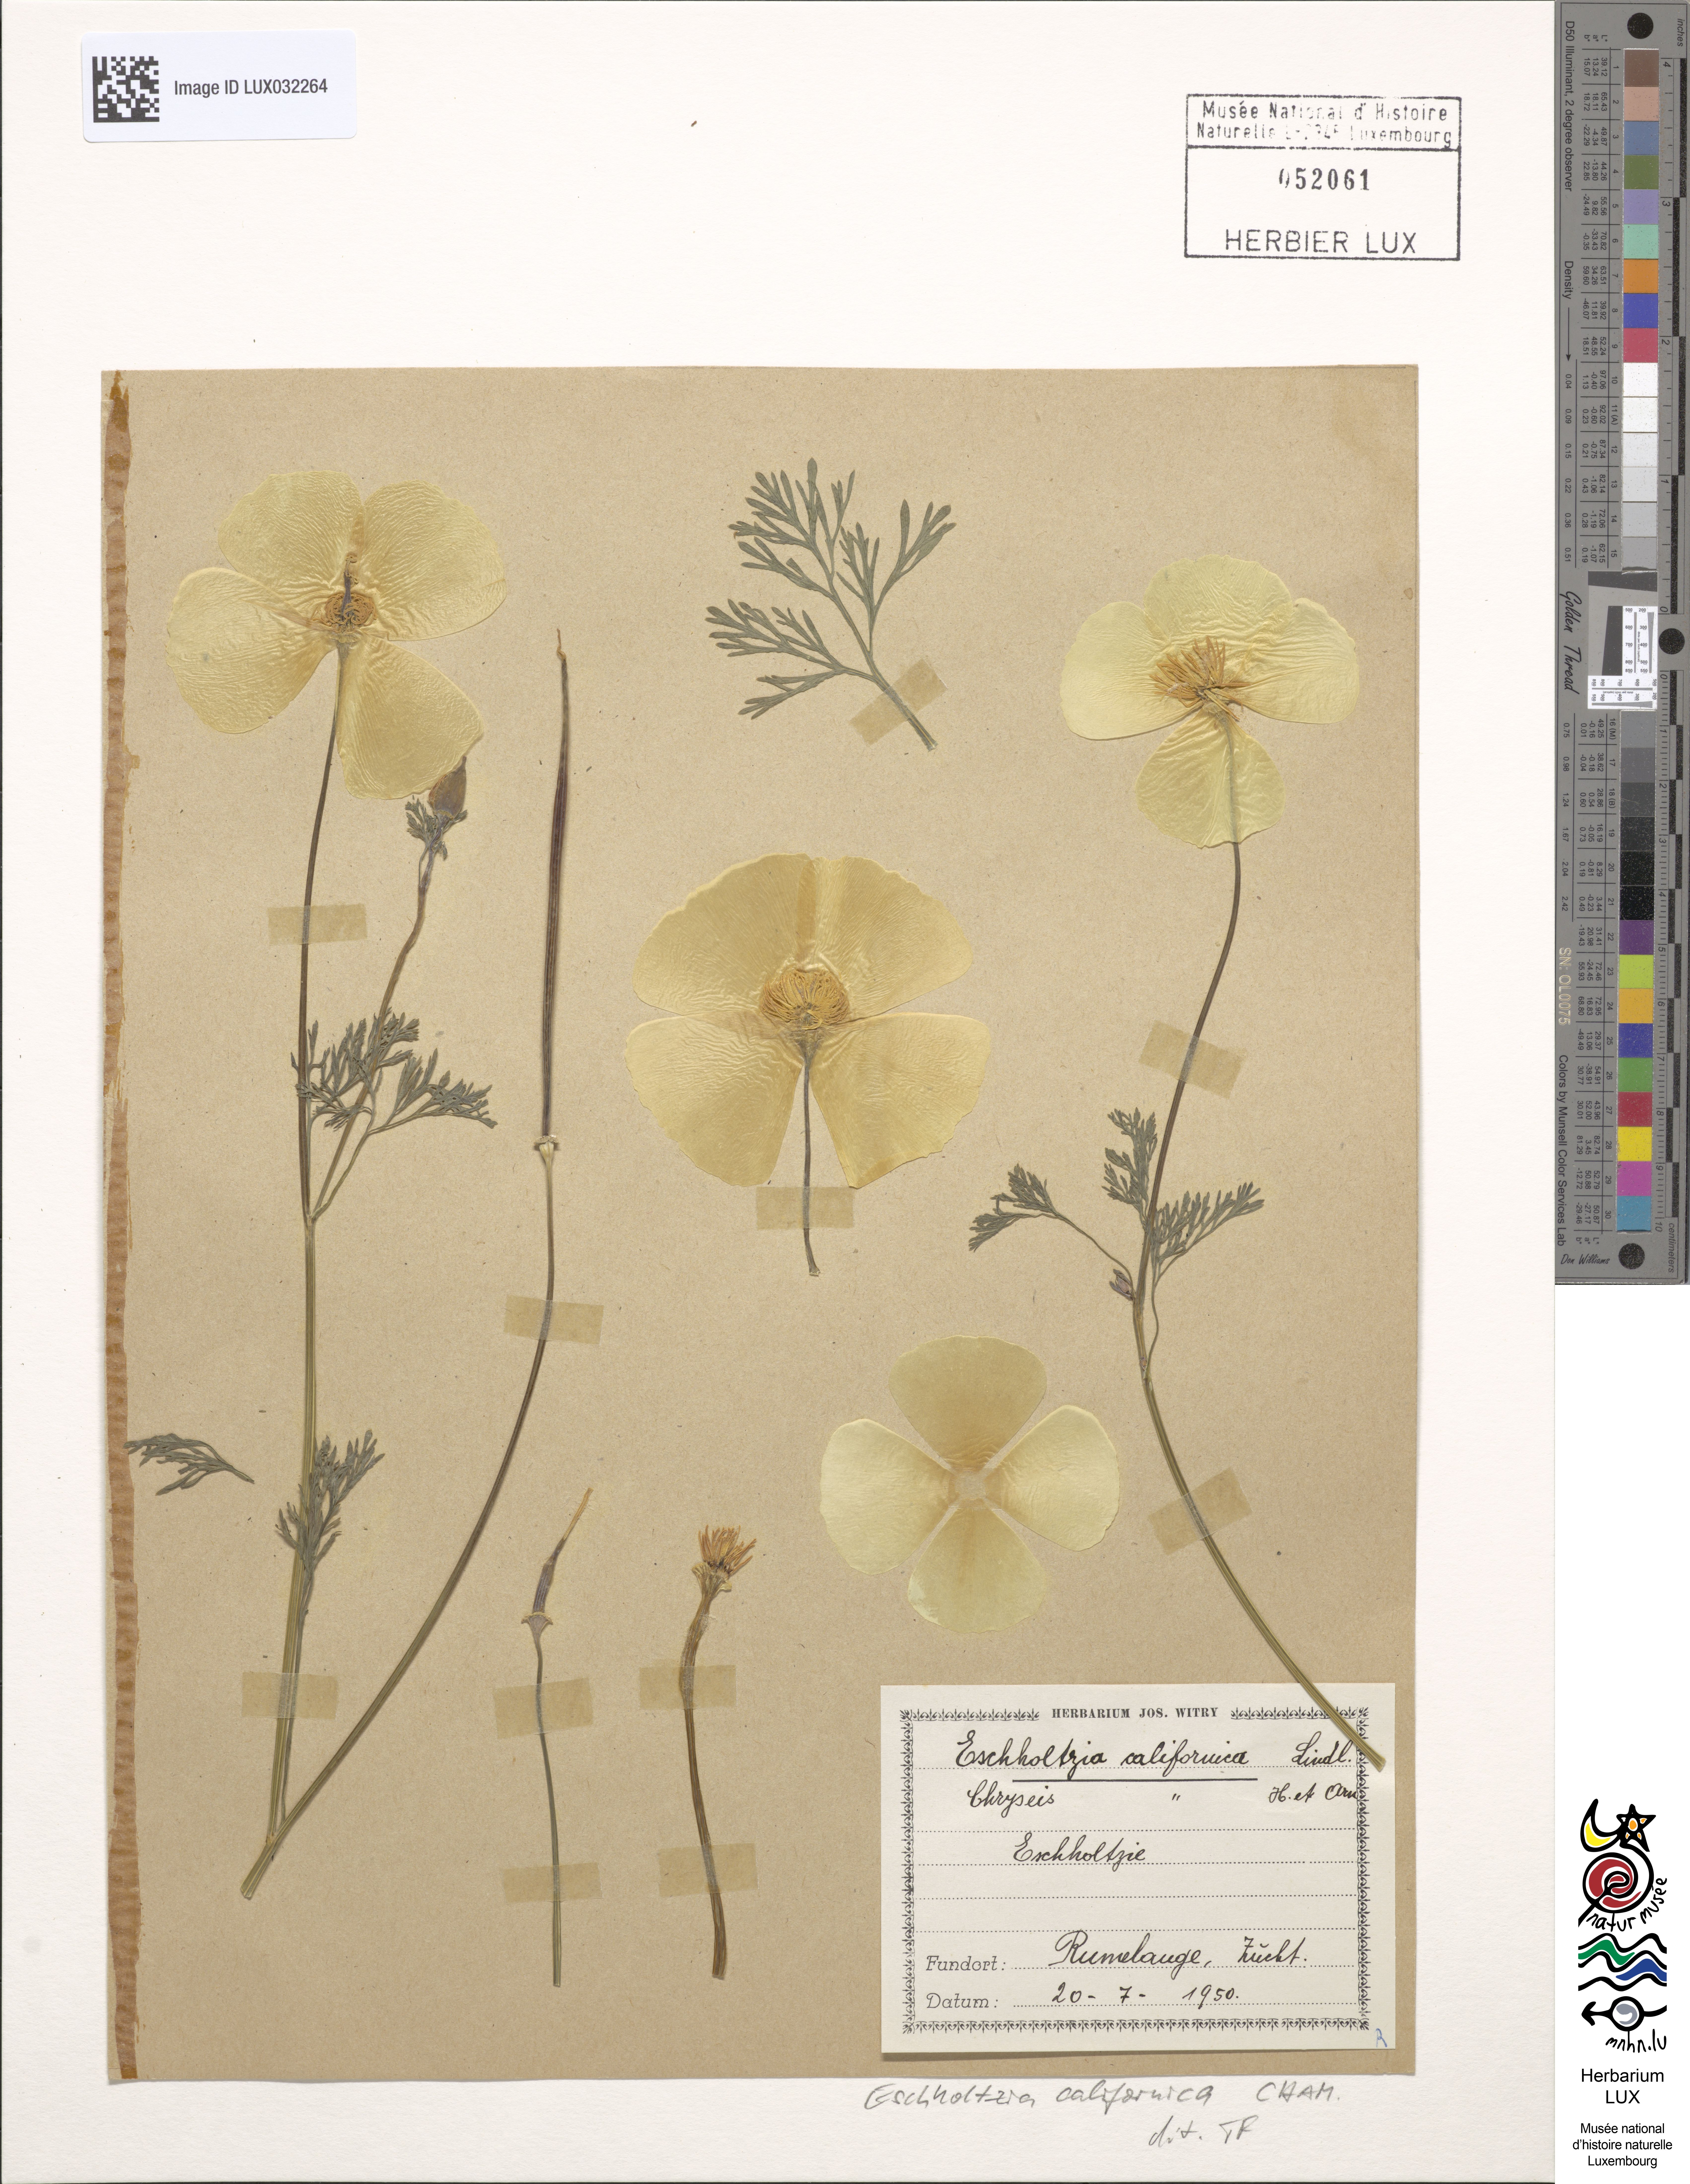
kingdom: Plantae
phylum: Tracheophyta
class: Magnoliopsida
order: Ranunculales
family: Papaveraceae
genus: Eschscholzia
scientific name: Eschscholzia californica
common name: California poppy
